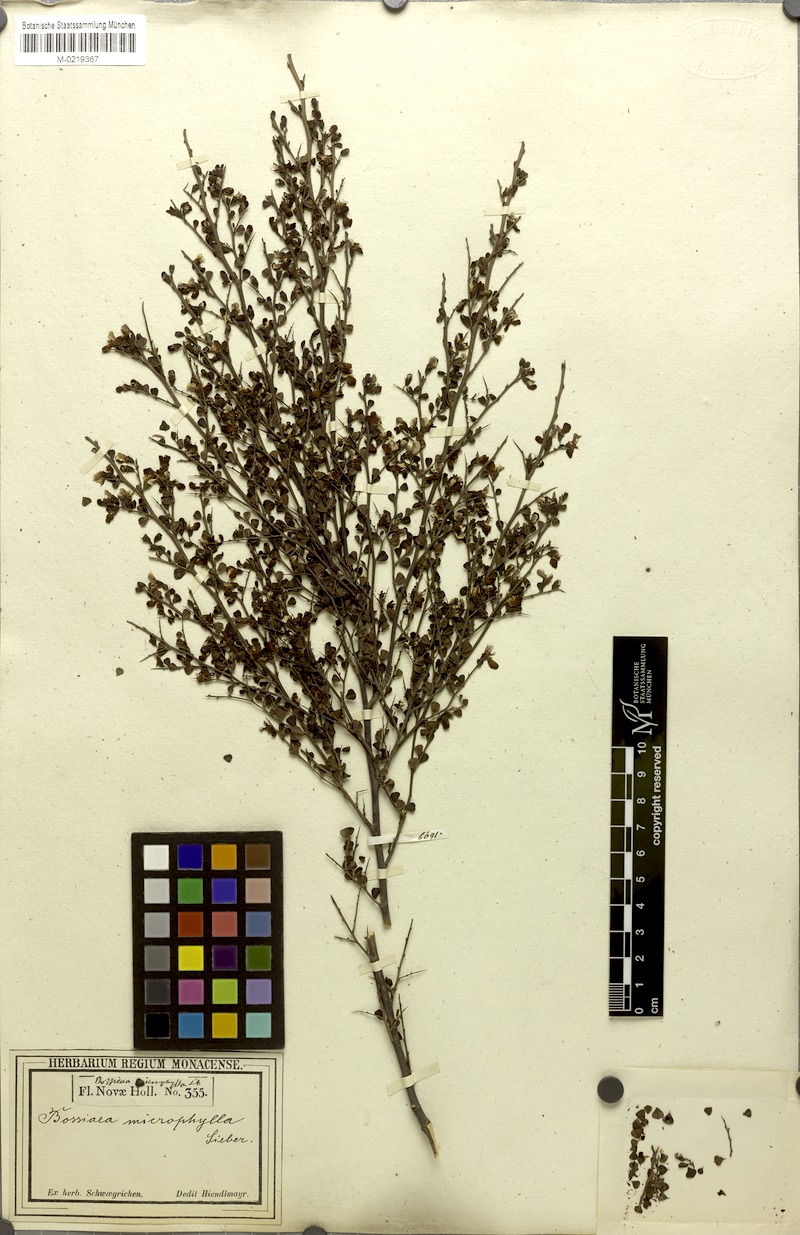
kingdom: Plantae
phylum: Tracheophyta
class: Magnoliopsida
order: Fabales
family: Fabaceae
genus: Bossiaea
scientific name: Bossiaea obcordata
